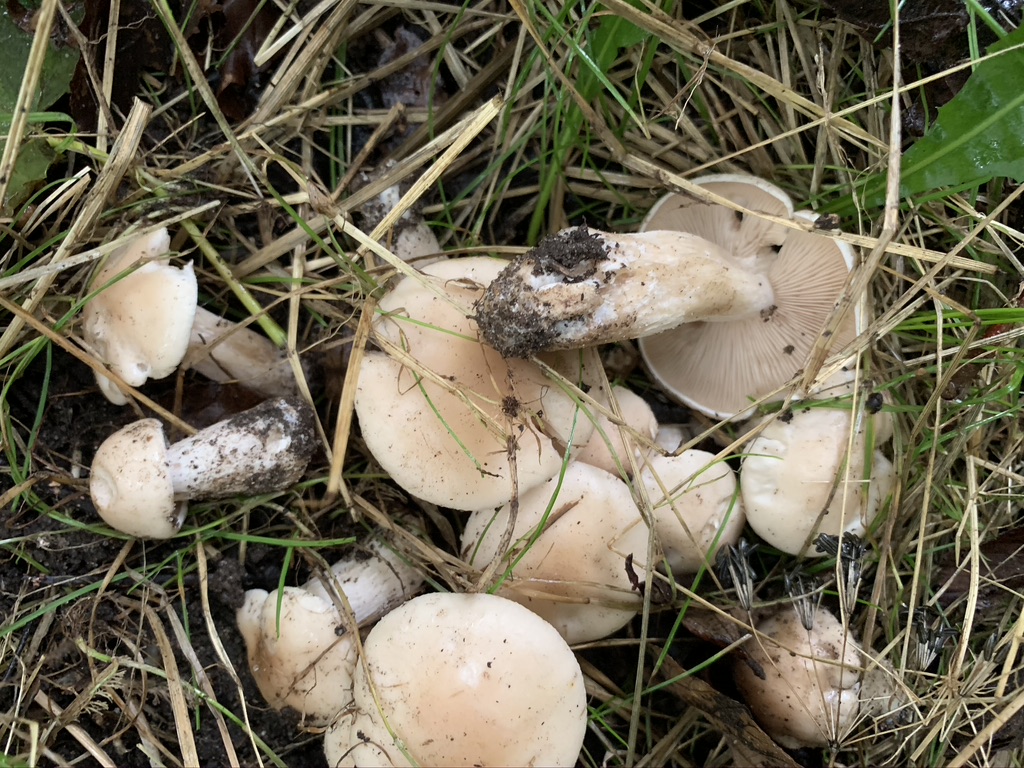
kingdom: Fungi
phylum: Basidiomycota
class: Agaricomycetes
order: Agaricales
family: Tricholomataceae
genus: Lepista
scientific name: Lepista irina
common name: violduftende hekseringshat
